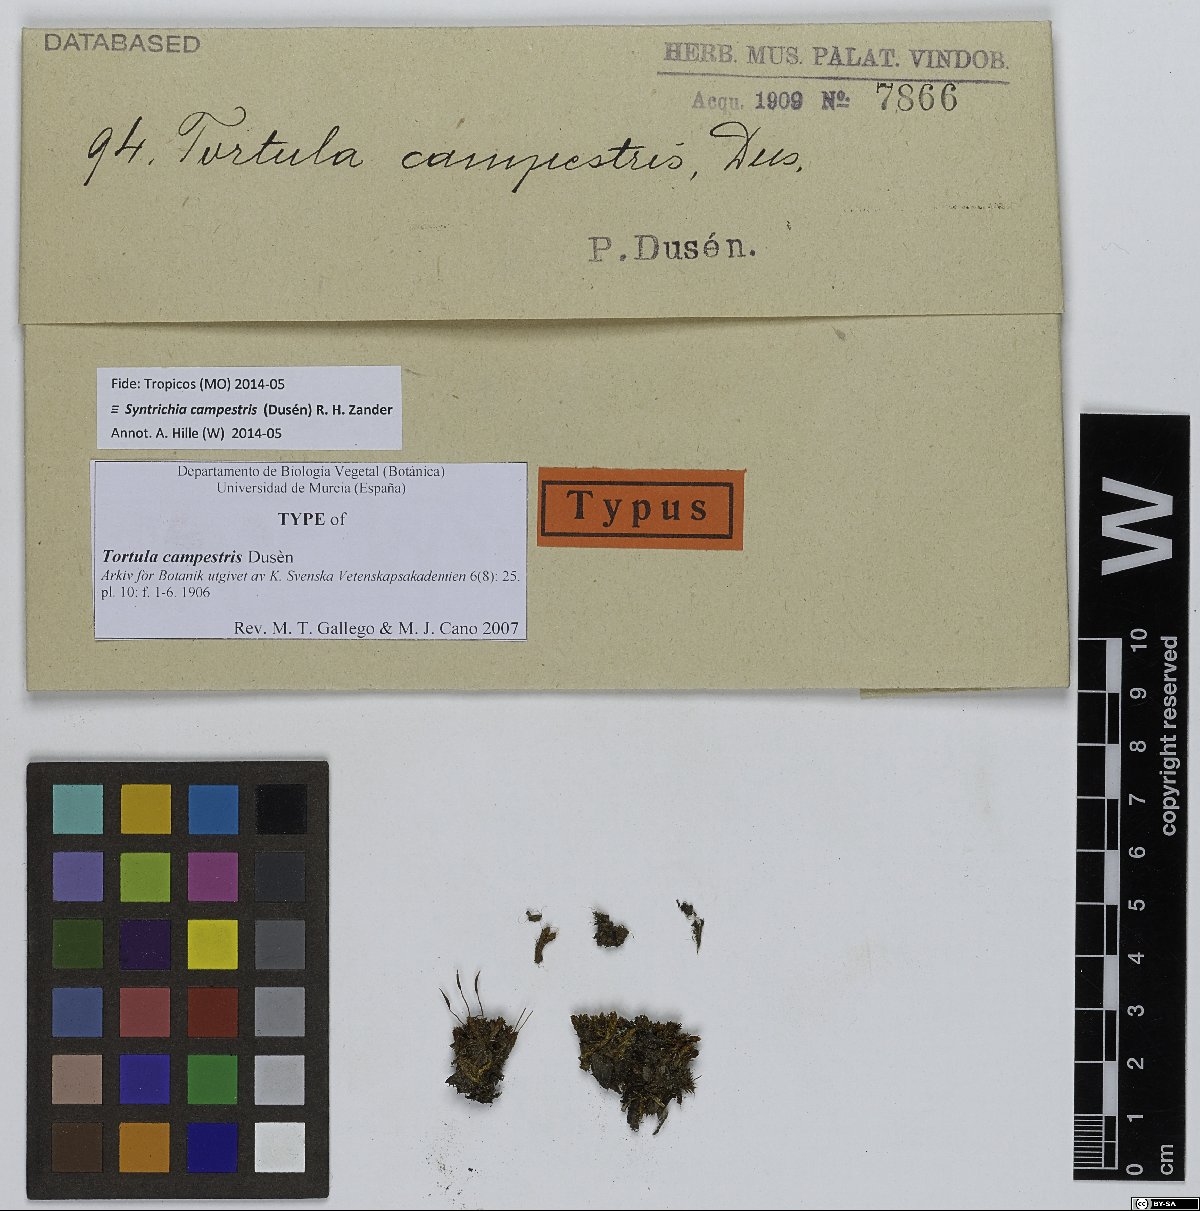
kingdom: Plantae
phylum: Bryophyta
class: Bryopsida
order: Pottiales
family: Pottiaceae
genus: Syntrichia
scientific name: Syntrichia campestris
